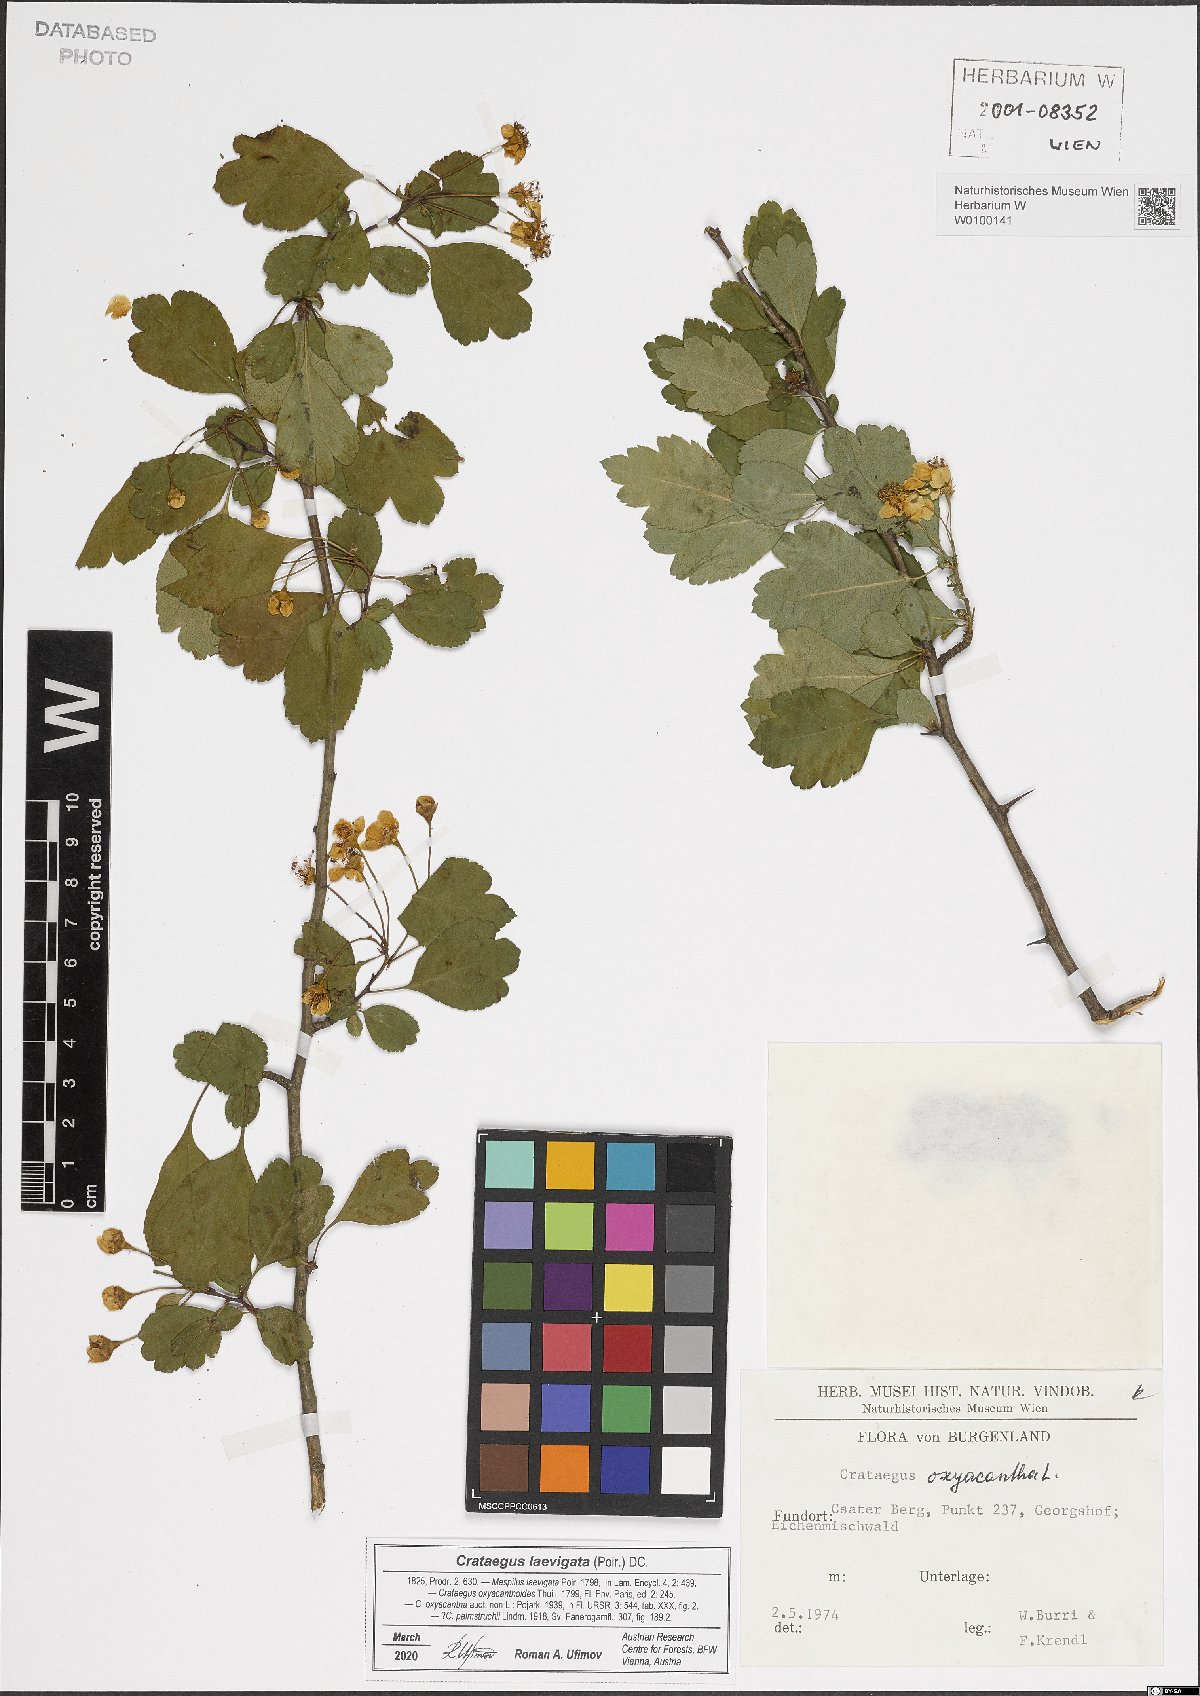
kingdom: Plantae
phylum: Tracheophyta
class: Magnoliopsida
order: Rosales
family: Rosaceae
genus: Crataegus
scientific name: Crataegus laevigata
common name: Midland hawthorn
